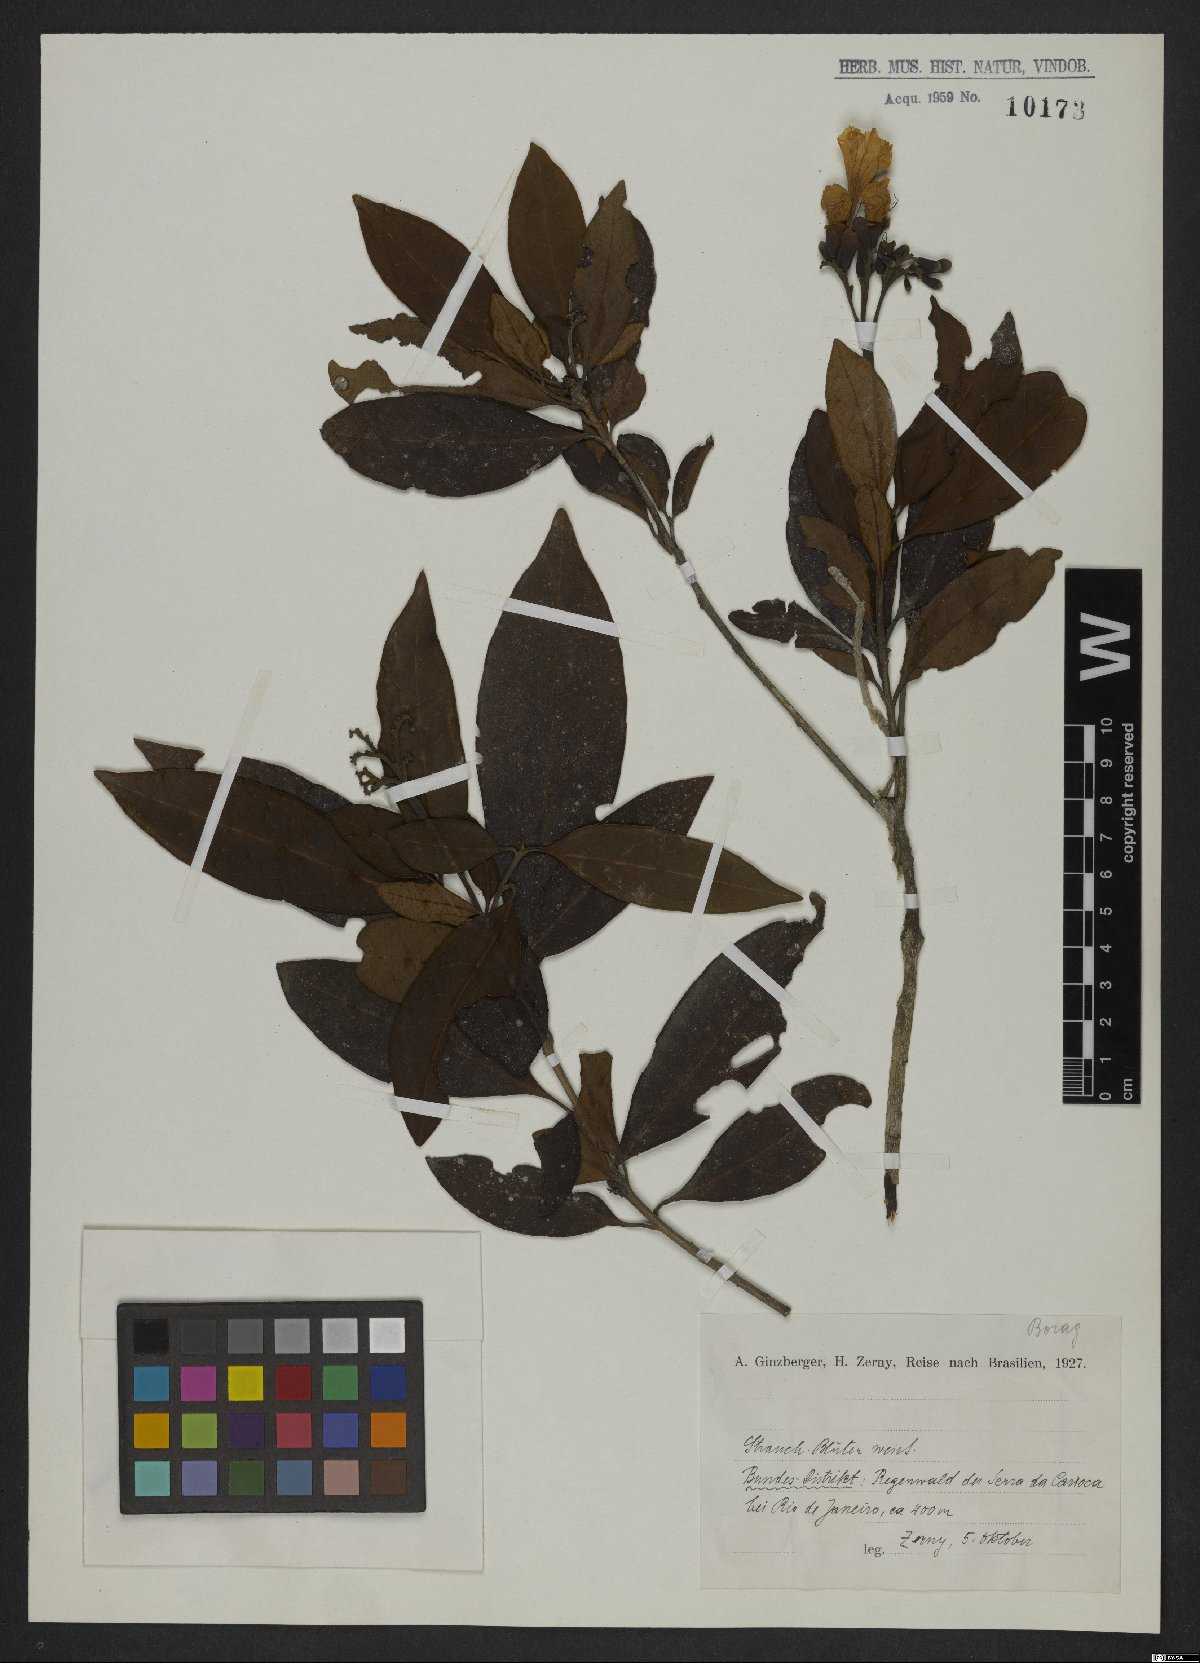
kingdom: Plantae
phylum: Tracheophyta
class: Magnoliopsida
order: Boraginales
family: Boraginaceae
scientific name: Boraginaceae
